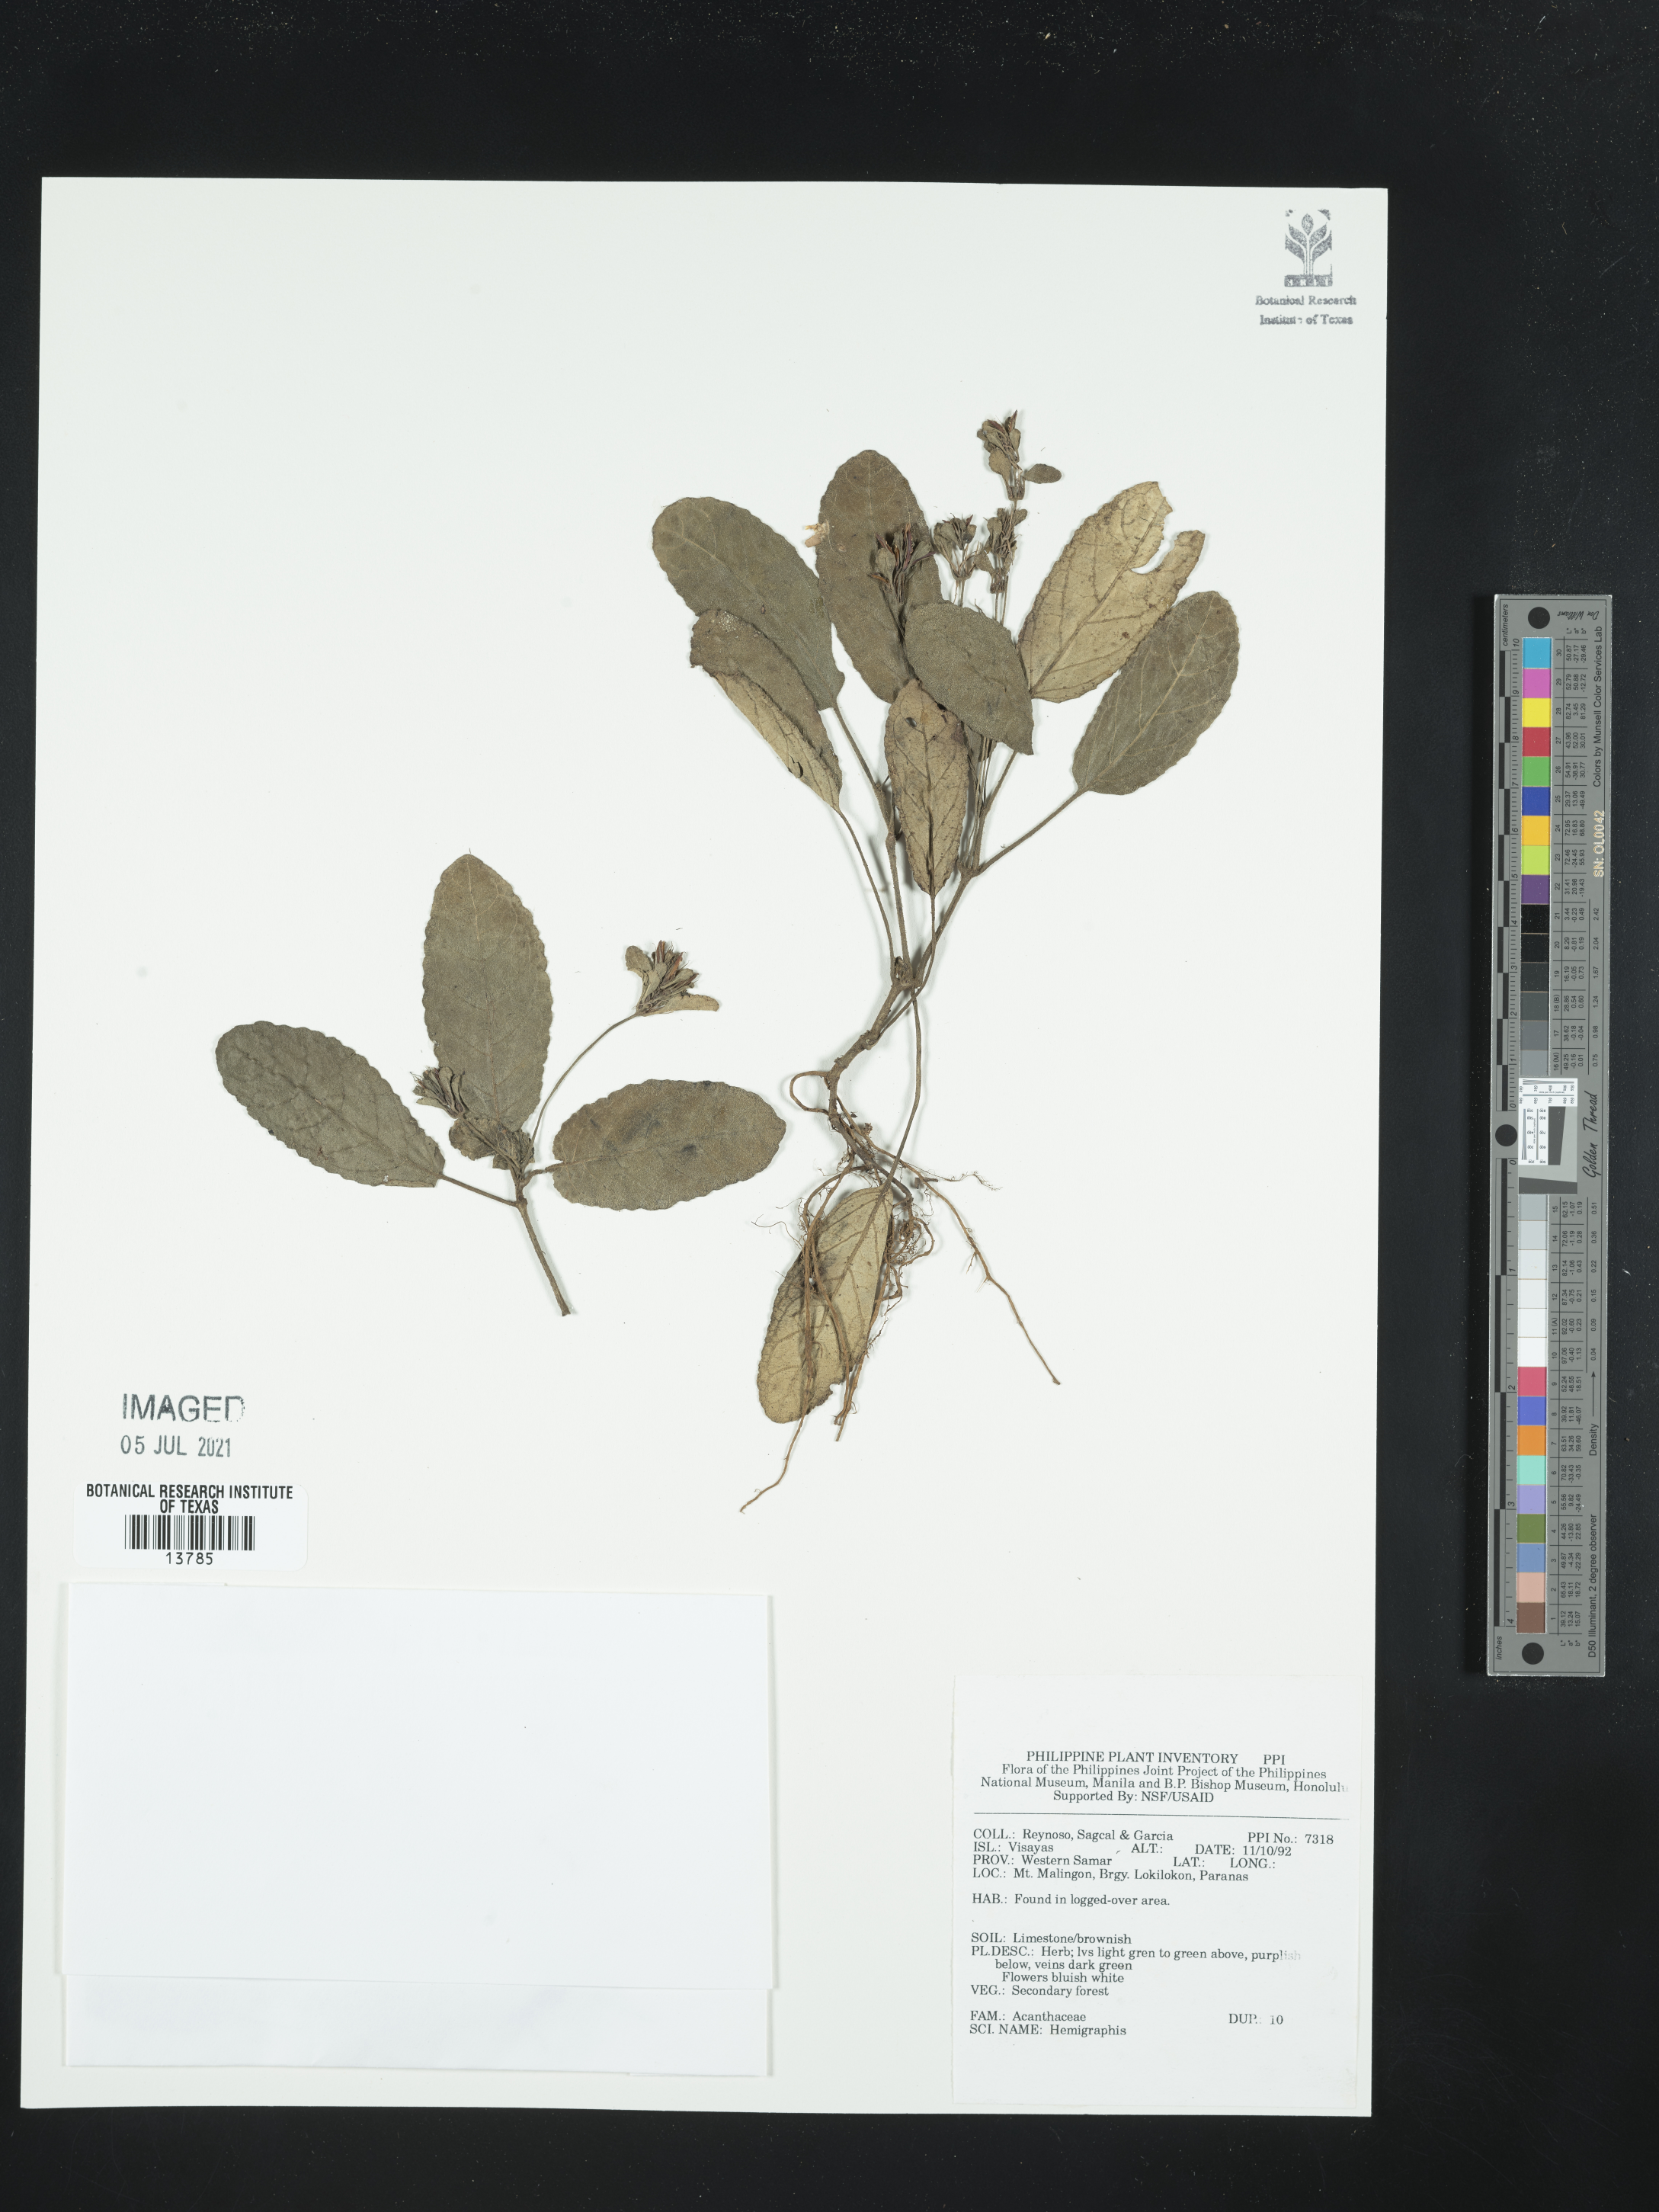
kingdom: Plantae
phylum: Tracheophyta
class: Magnoliopsida
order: Lamiales
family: Acanthaceae
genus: Hemigraphis
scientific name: Hemigraphis
